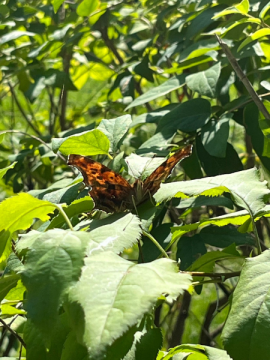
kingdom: Animalia
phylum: Arthropoda
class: Insecta
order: Lepidoptera
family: Nymphalidae
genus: Polygonia
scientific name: Polygonia satyrus
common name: Satyr Comma
